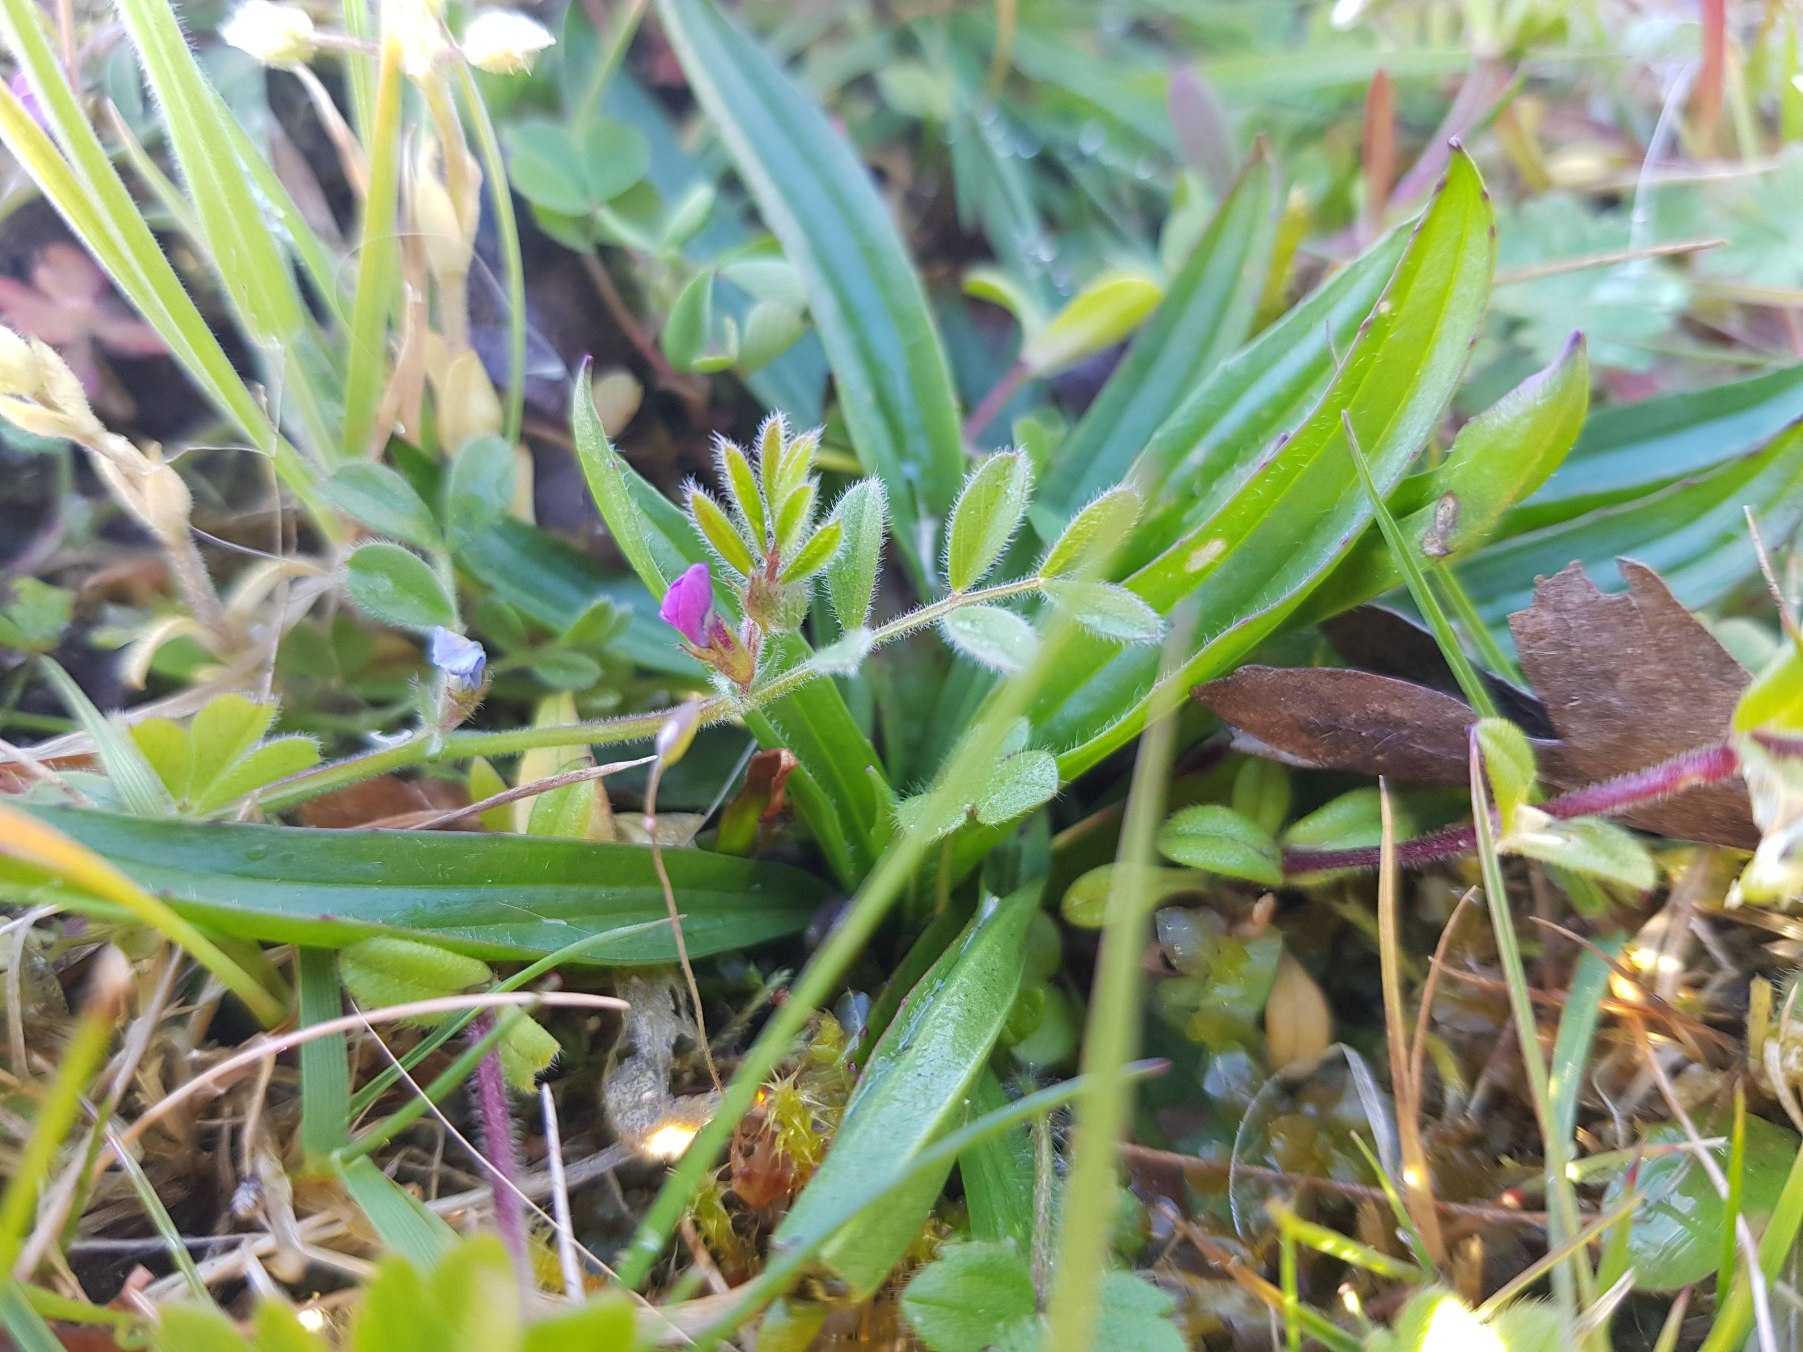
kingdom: Plantae
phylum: Tracheophyta
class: Magnoliopsida
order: Fabales
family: Fabaceae
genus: Vicia
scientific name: Vicia lathyroides
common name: Vår-vikke
